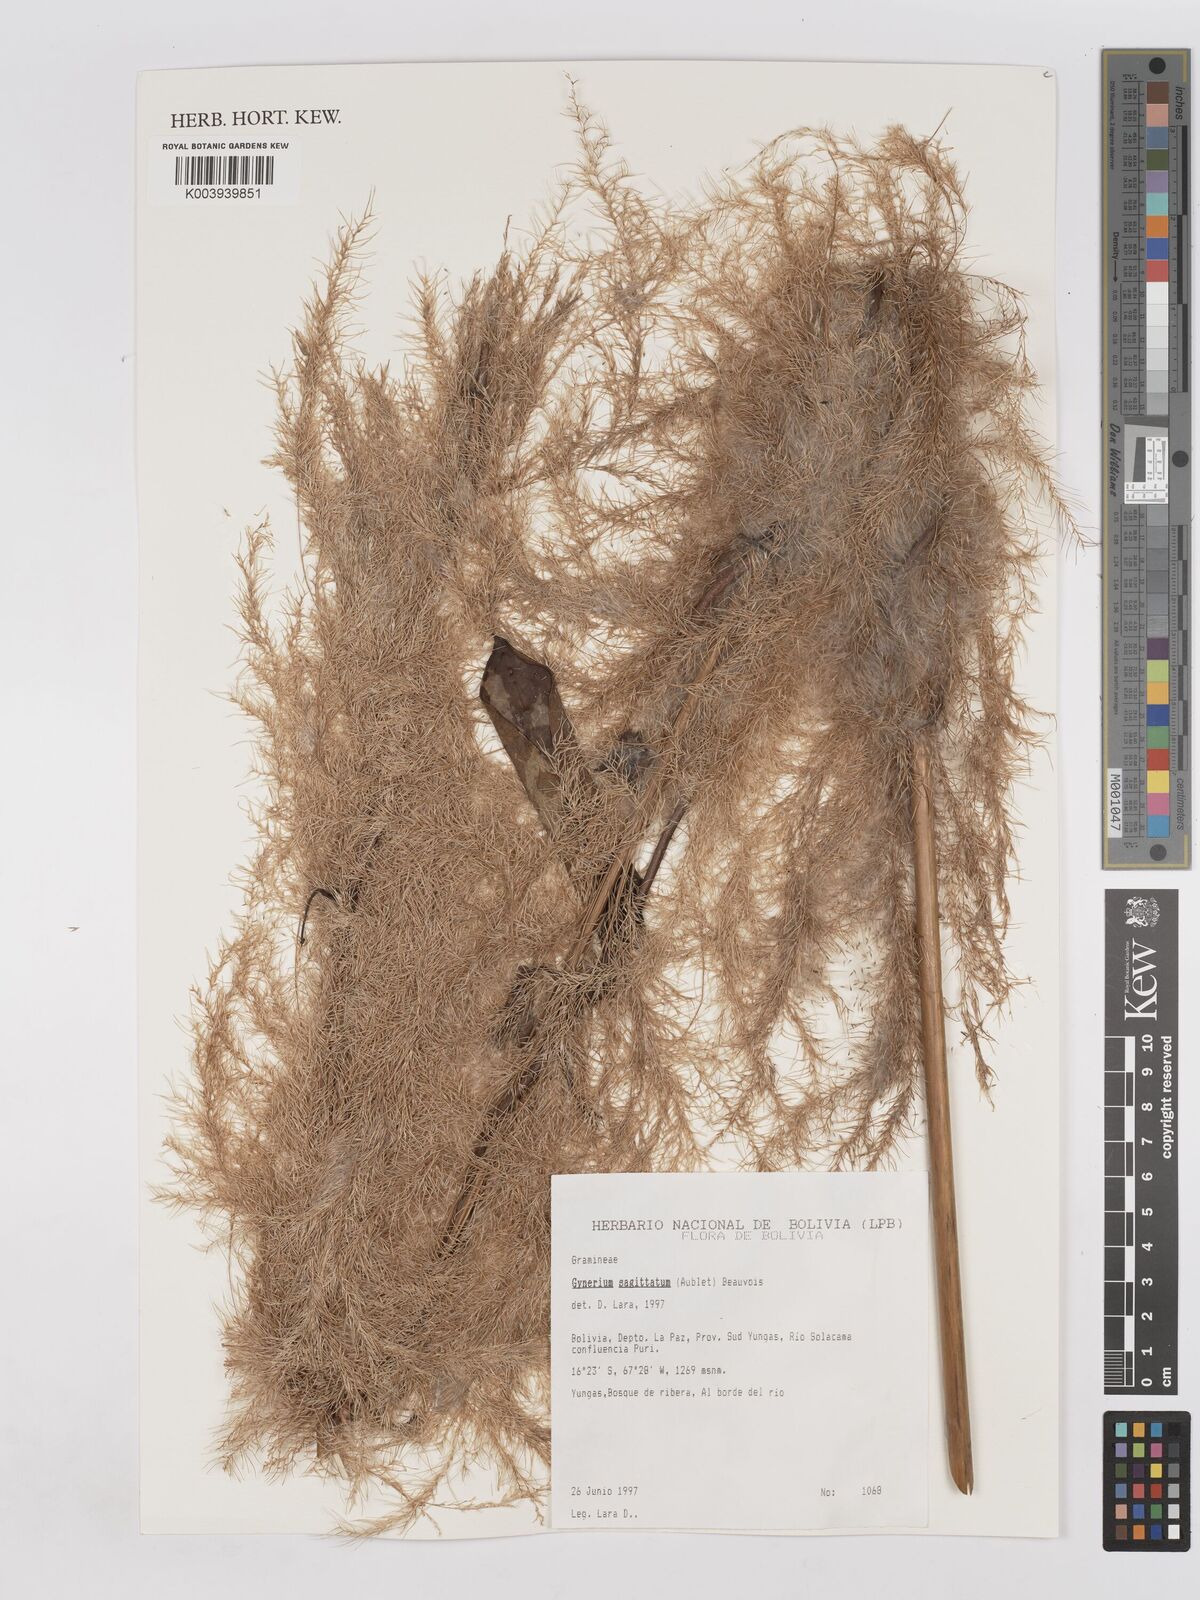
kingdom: Plantae
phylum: Tracheophyta
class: Liliopsida
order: Poales
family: Poaceae
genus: Gynerium
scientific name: Gynerium sagittatum
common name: Wild cane
